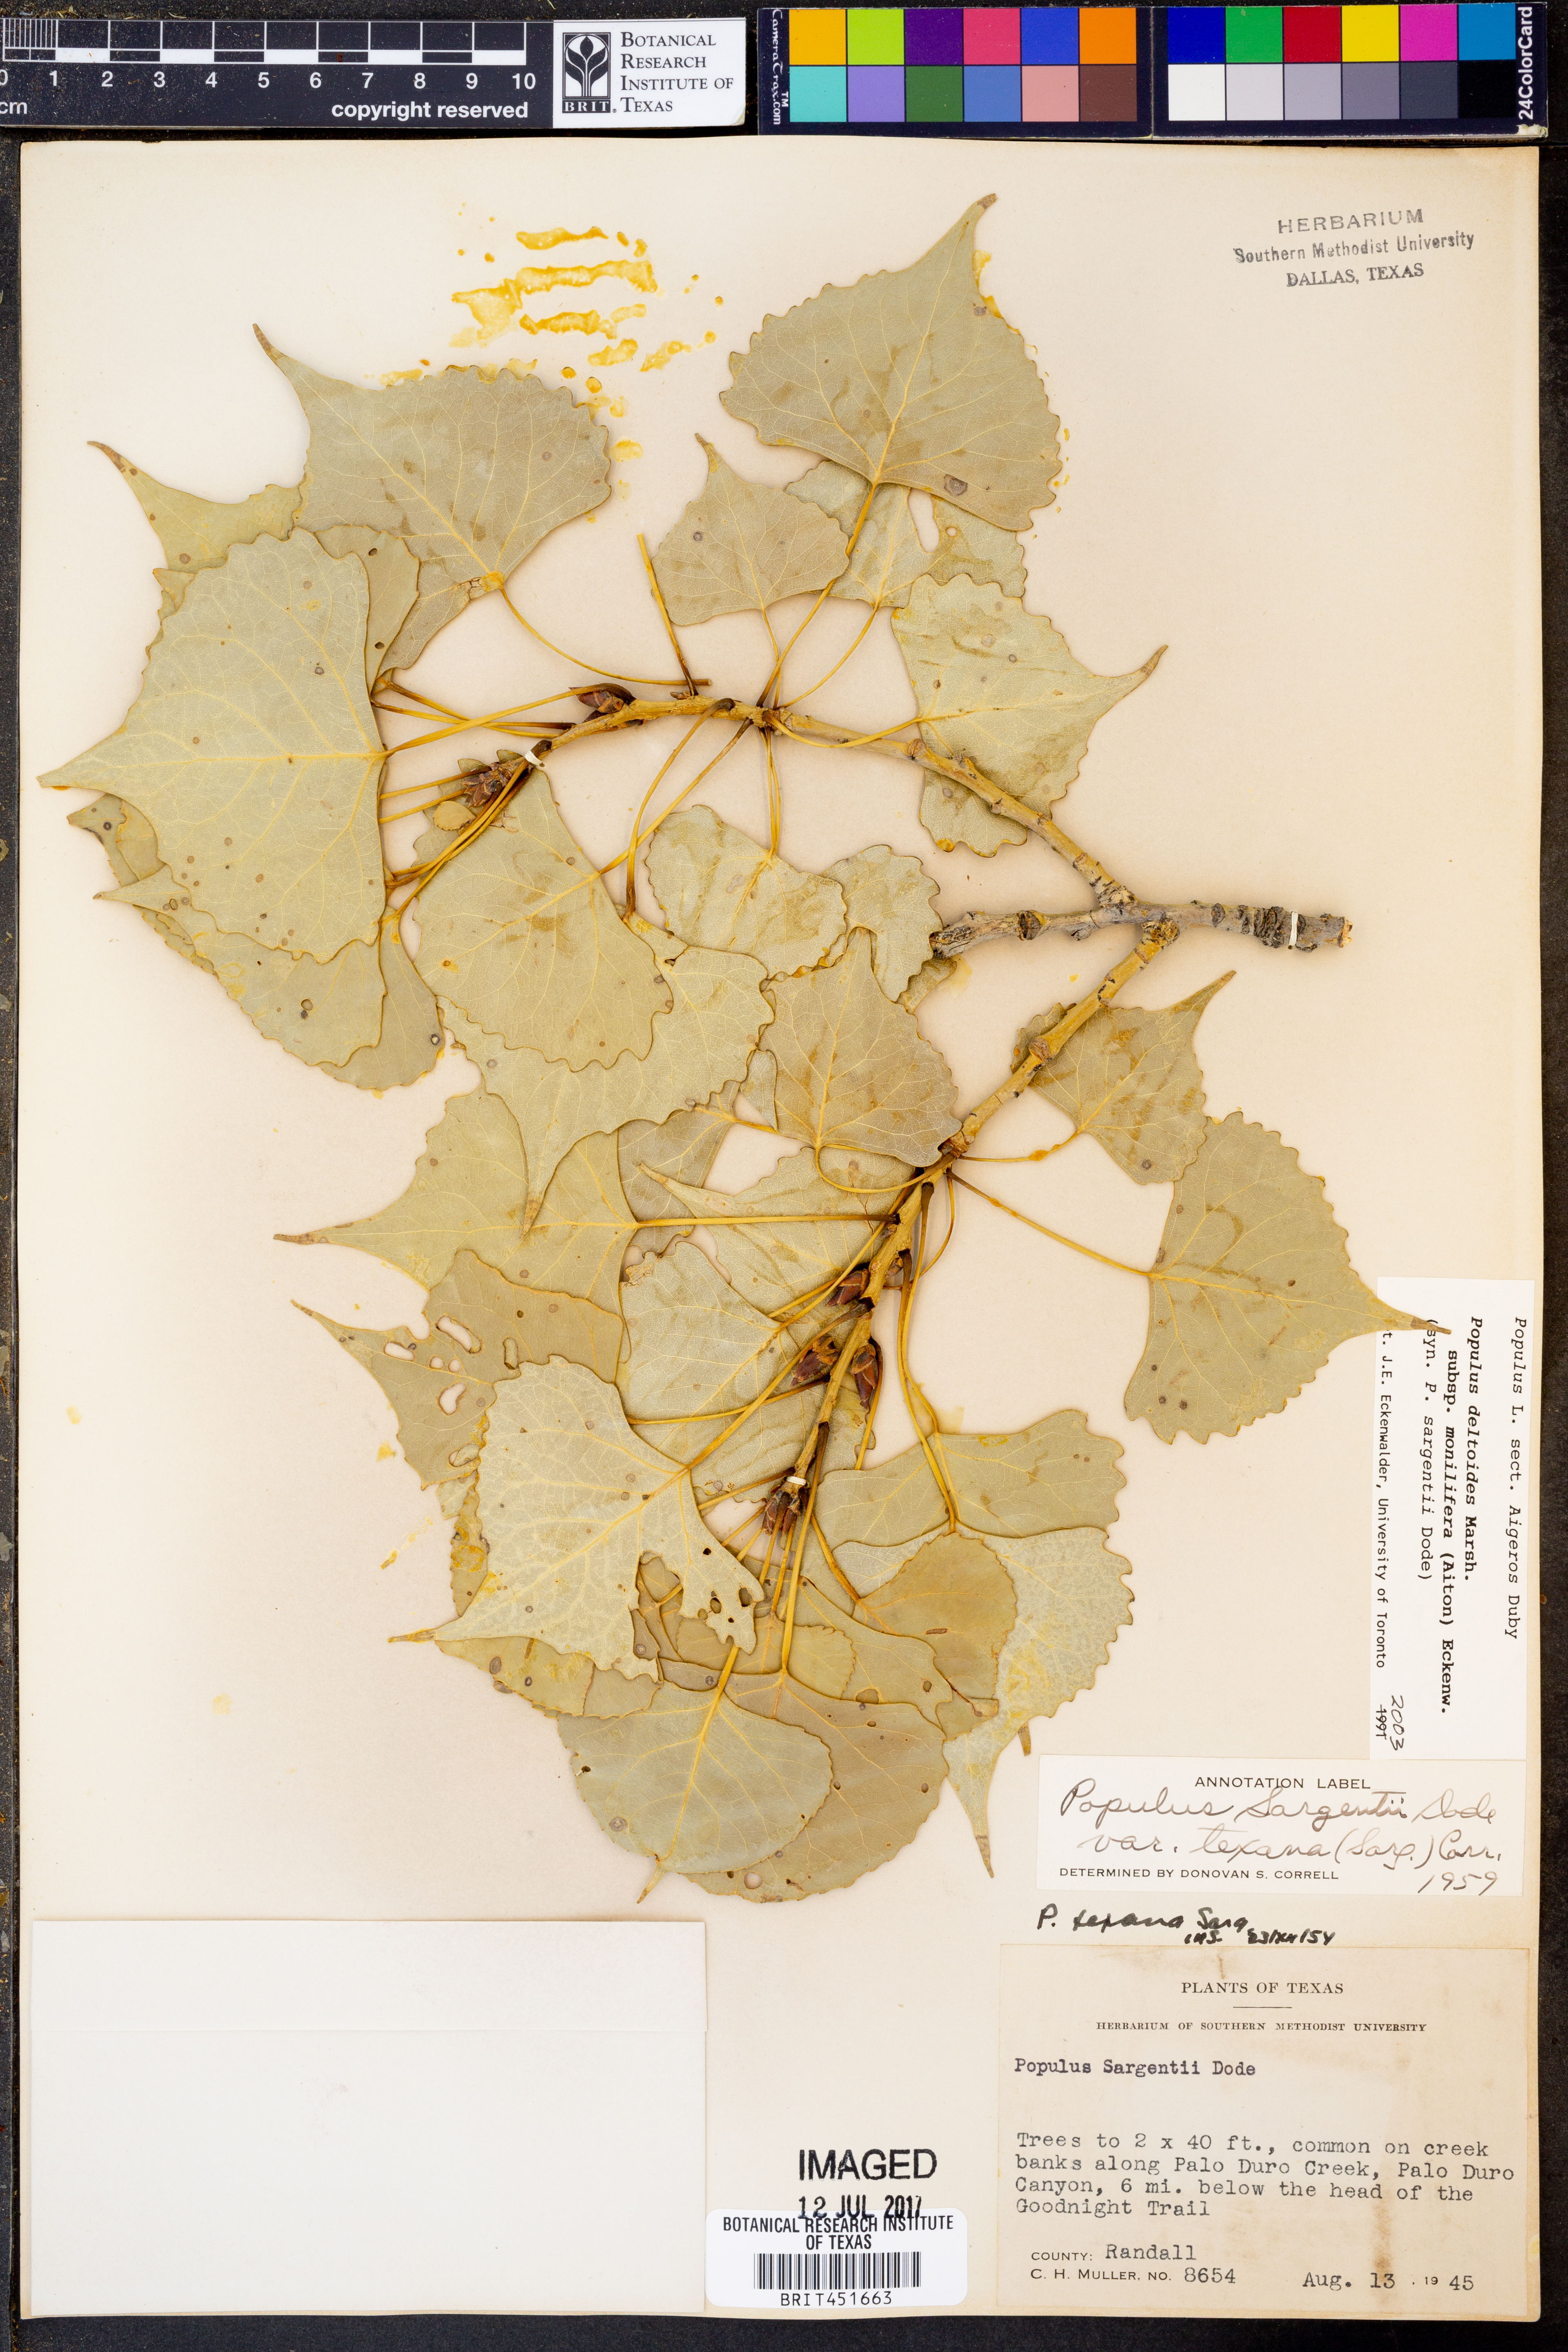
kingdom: Plantae
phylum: Tracheophyta
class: Magnoliopsida
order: Malpighiales
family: Salicaceae
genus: Populus
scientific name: Populus deltoides
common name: Eastern cottonwood
